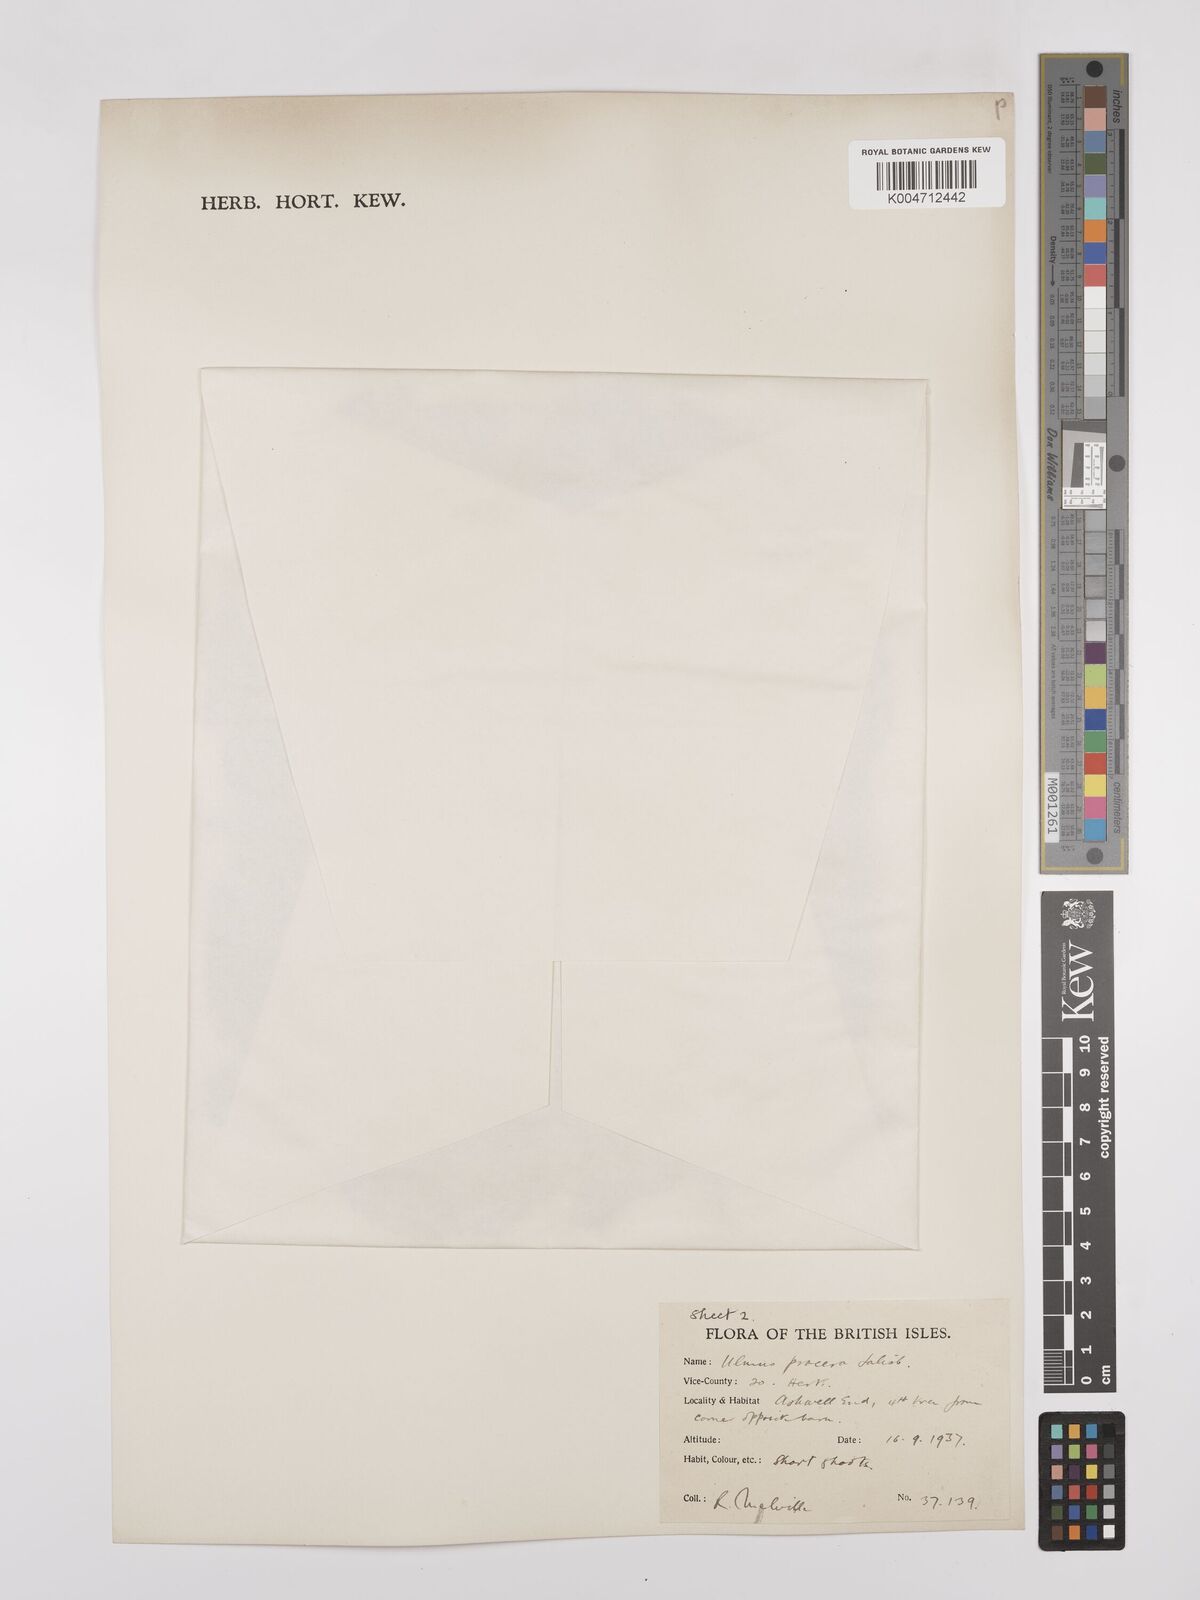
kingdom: Plantae
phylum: Tracheophyta
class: Magnoliopsida
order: Rosales
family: Ulmaceae
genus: Ulmus
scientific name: Ulmus minor
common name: Small-leaved elm
